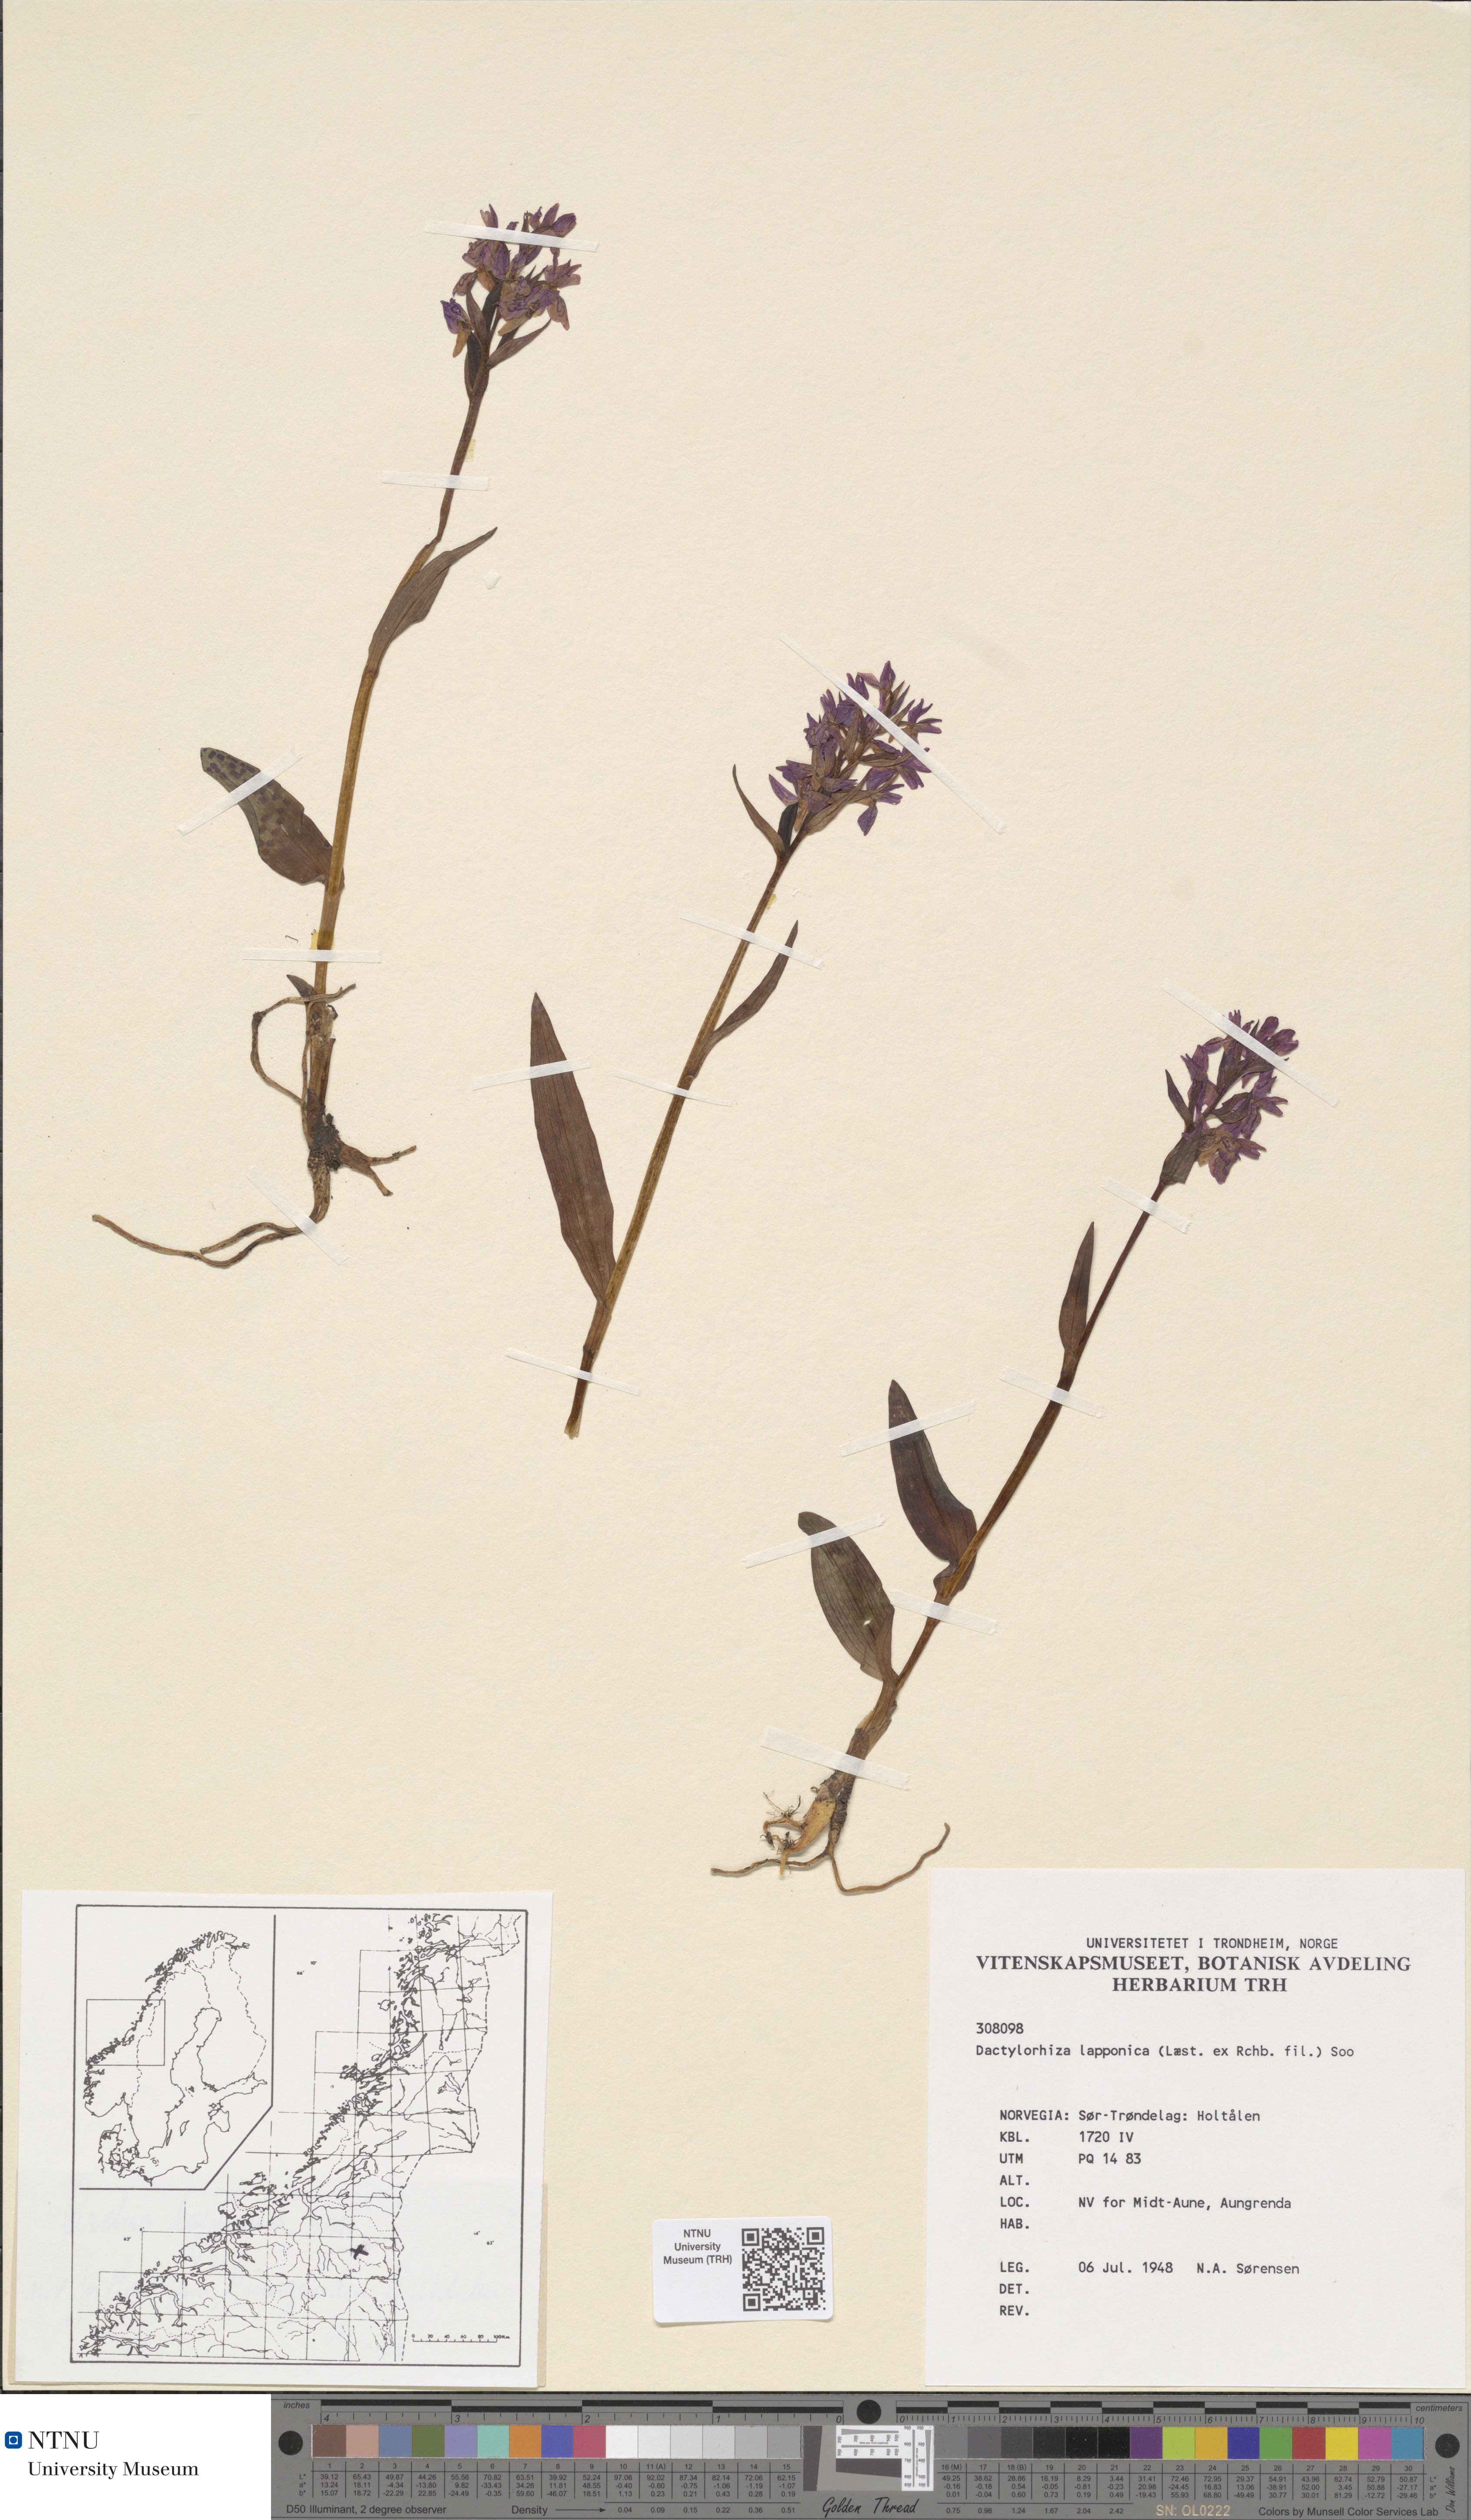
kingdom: Plantae
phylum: Tracheophyta
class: Liliopsida
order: Asparagales
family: Orchidaceae
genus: Dactylorhiza
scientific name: Dactylorhiza majalis
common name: Marsh orchid
